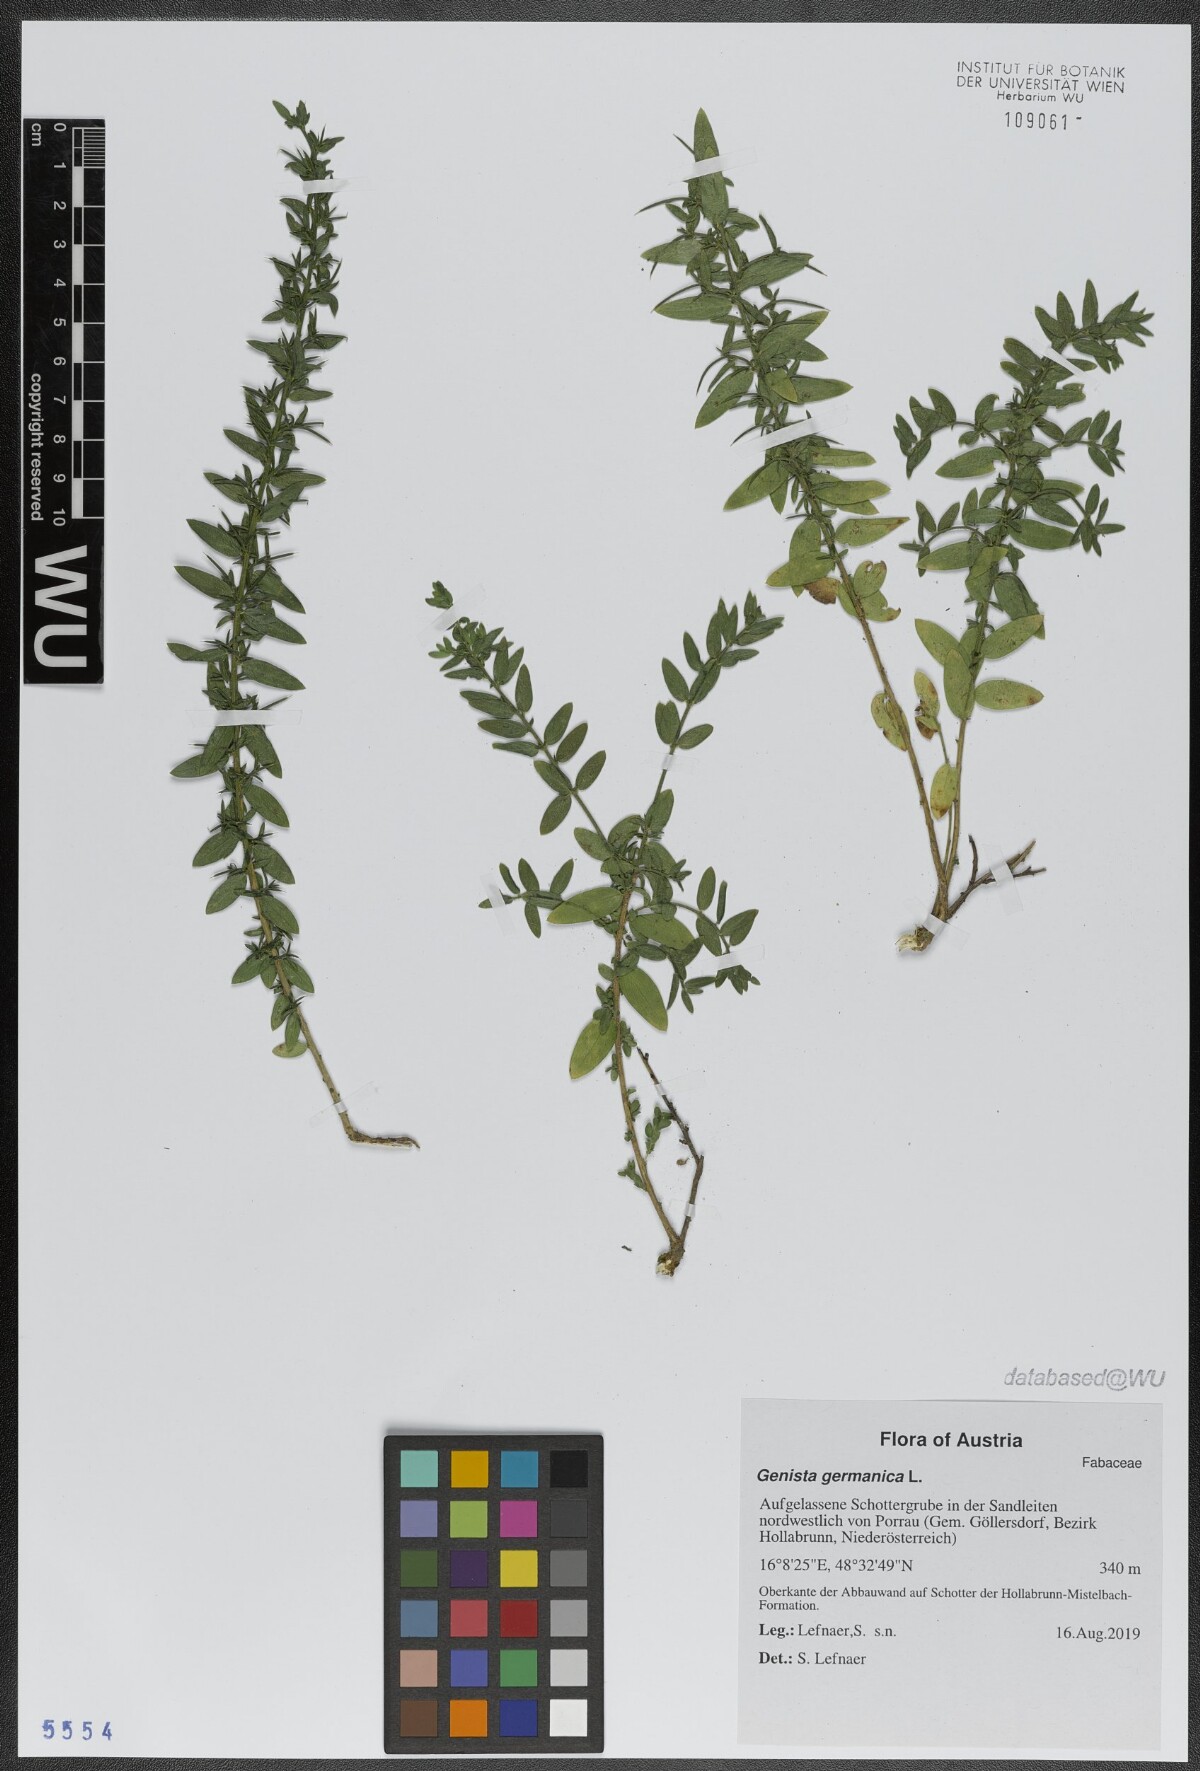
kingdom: Plantae
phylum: Tracheophyta
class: Magnoliopsida
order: Fabales
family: Fabaceae
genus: Genista
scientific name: Genista germanica
